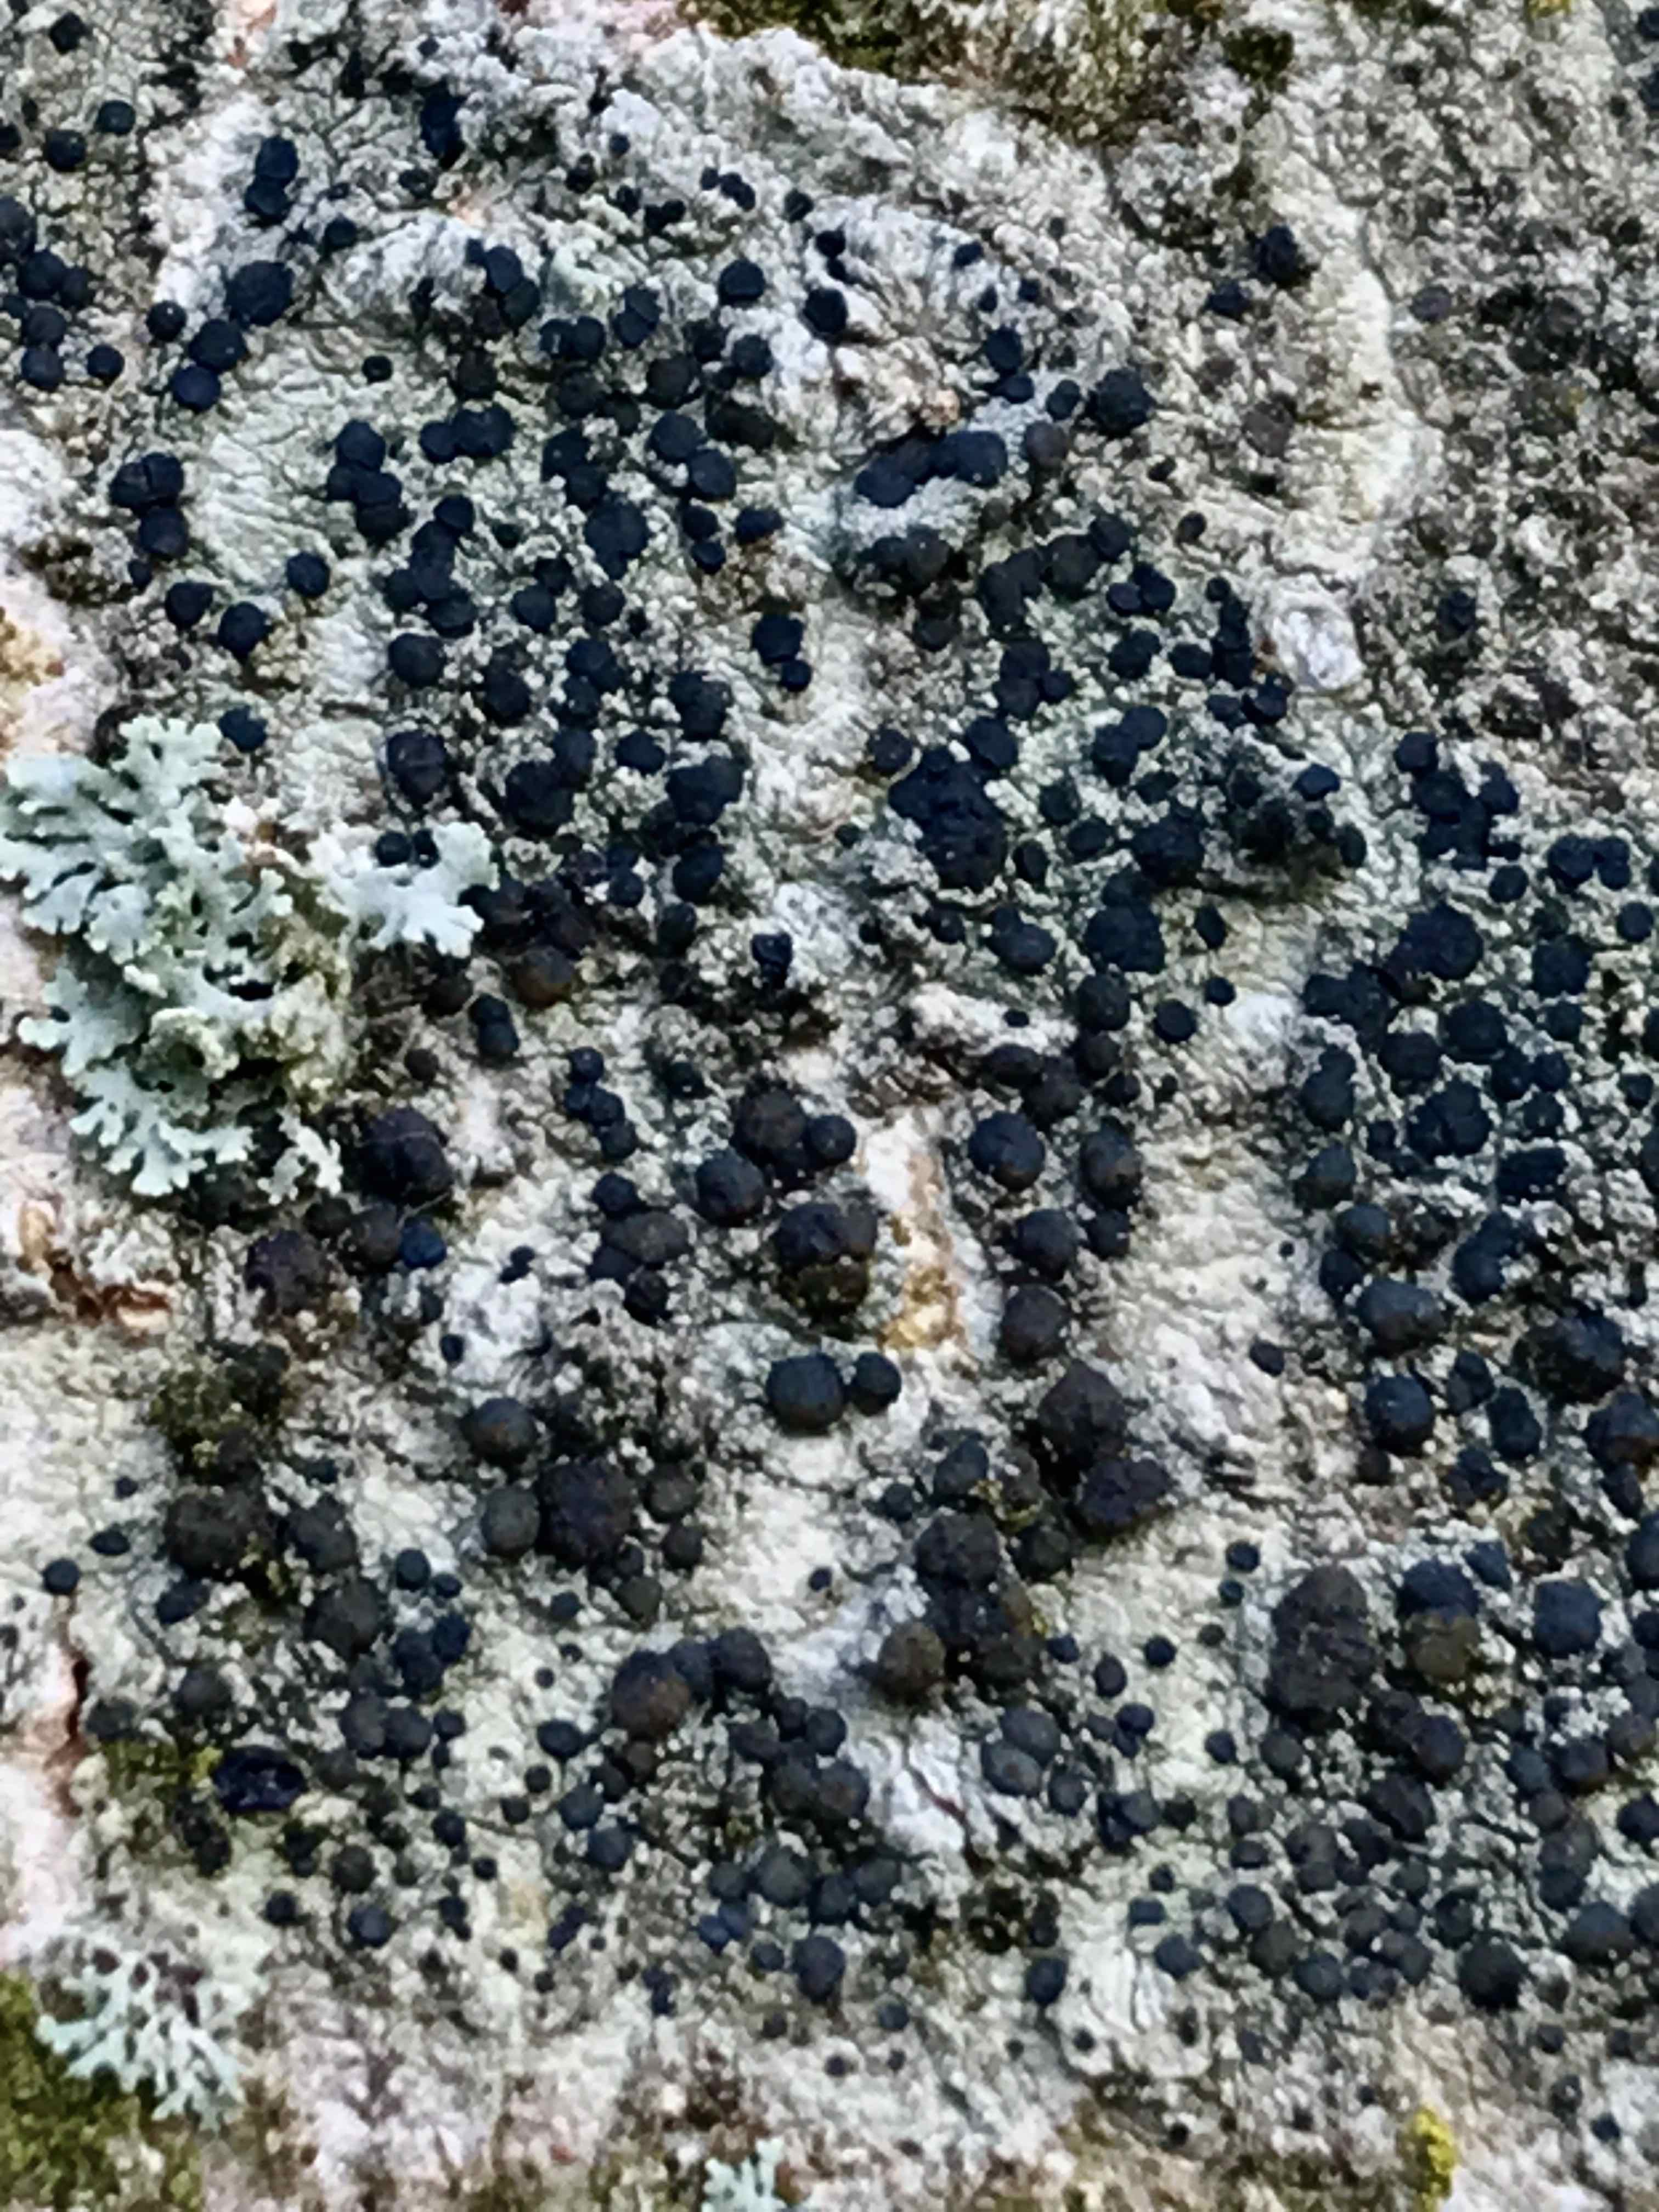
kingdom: Fungi
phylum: Ascomycota
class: Lecanoromycetes
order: Lecanorales
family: Lecanoraceae
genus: Lecidella
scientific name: Lecidella elaeochroma
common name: grågrøn skivelav
